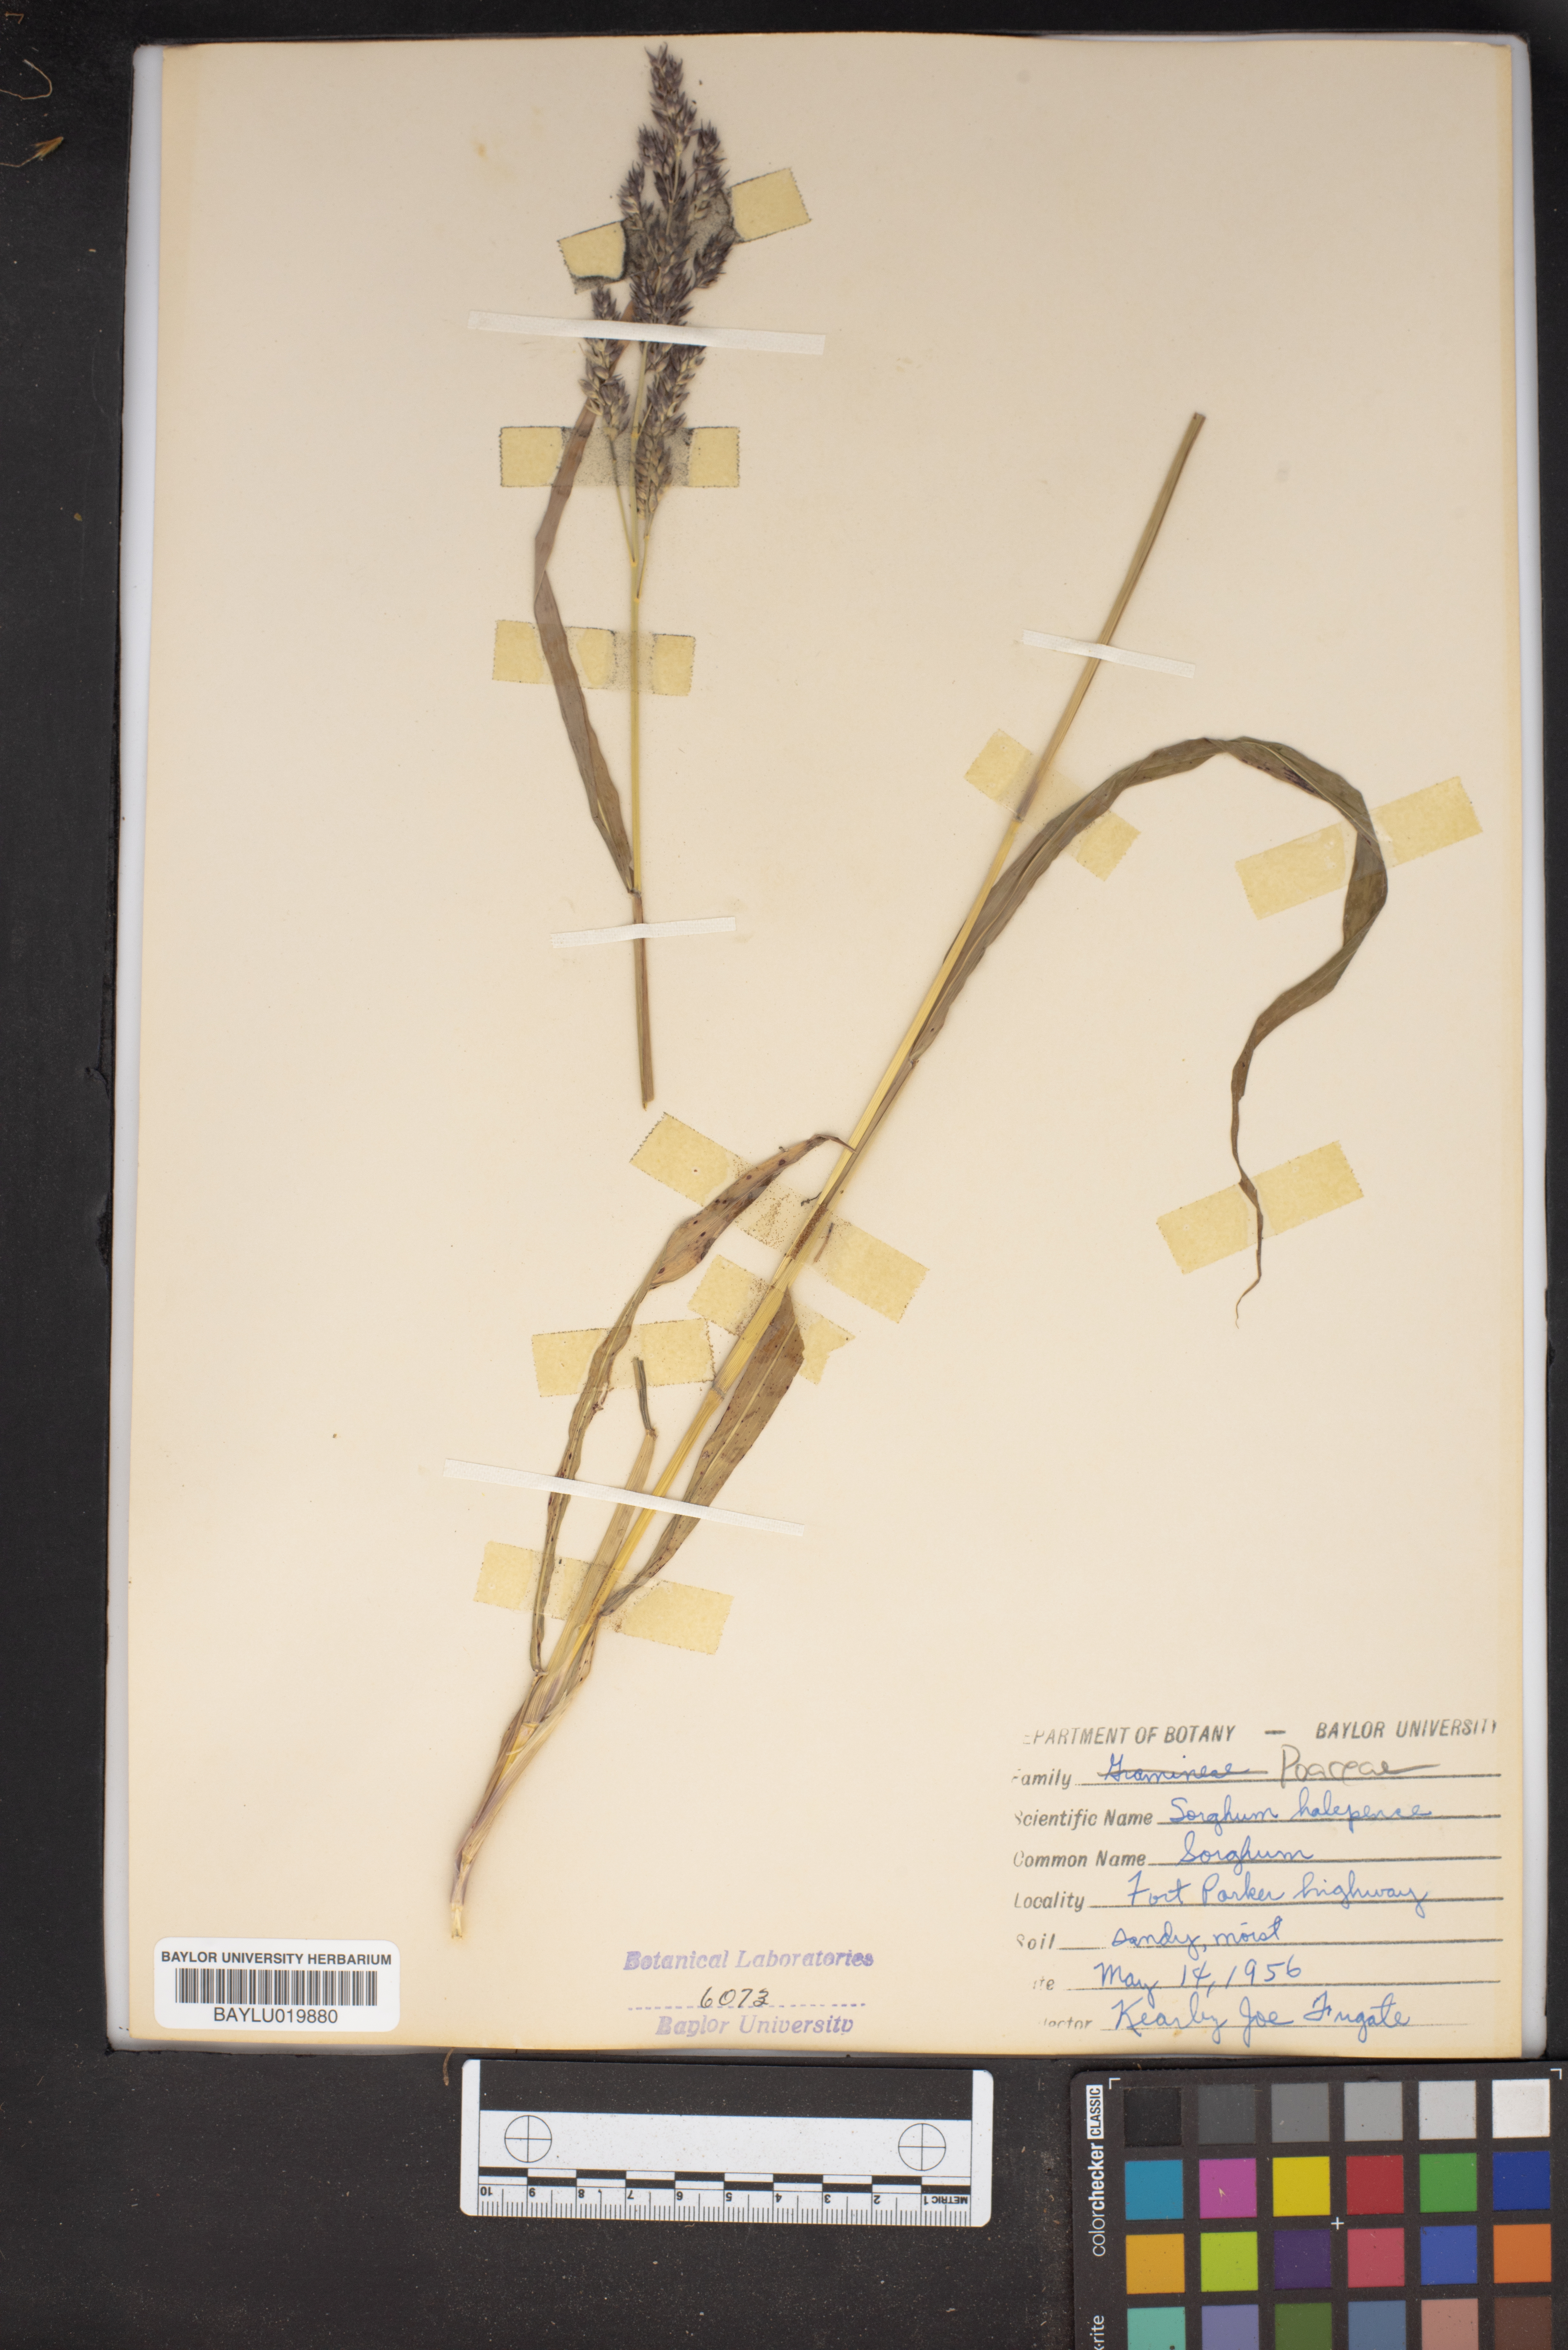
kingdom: Plantae
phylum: Tracheophyta
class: Liliopsida
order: Poales
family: Poaceae
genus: Sorghum
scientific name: Sorghum halepense
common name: Johnson-grass
